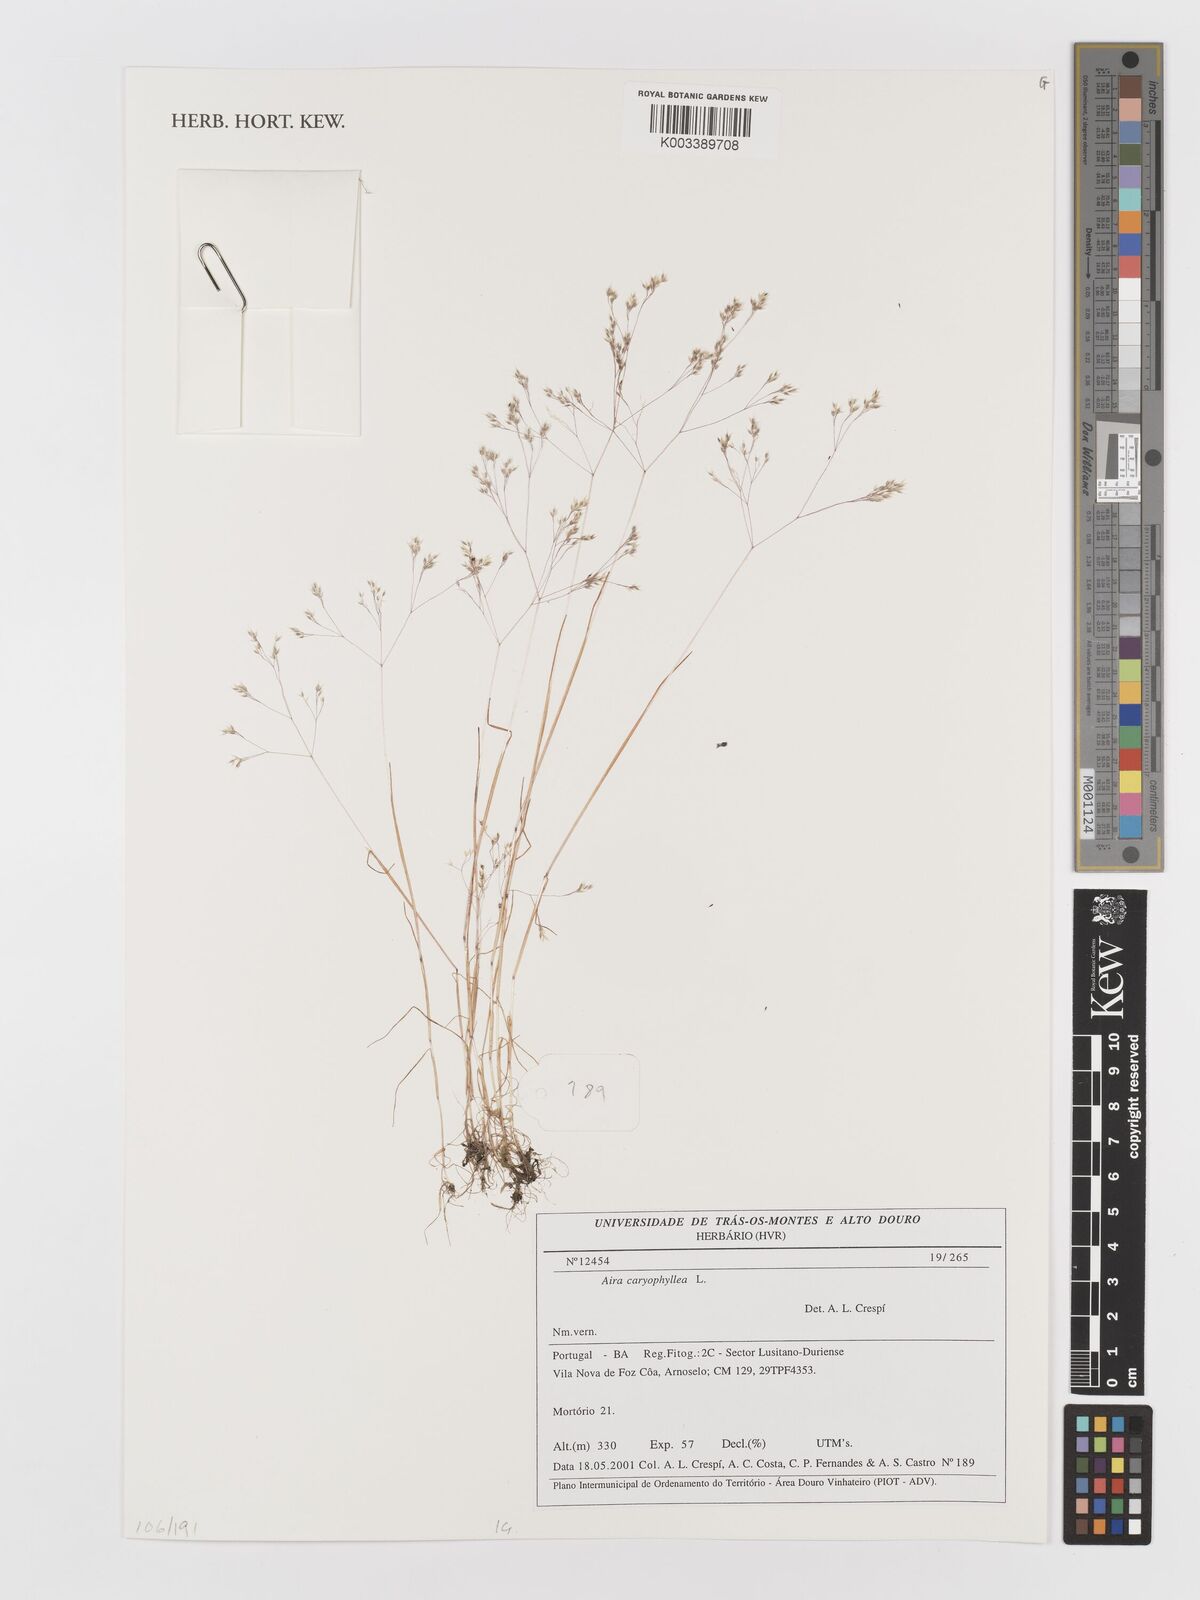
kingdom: Plantae
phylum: Tracheophyta
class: Liliopsida
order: Poales
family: Poaceae
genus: Aira
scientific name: Aira caryophyllea
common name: Silver hairgrass
